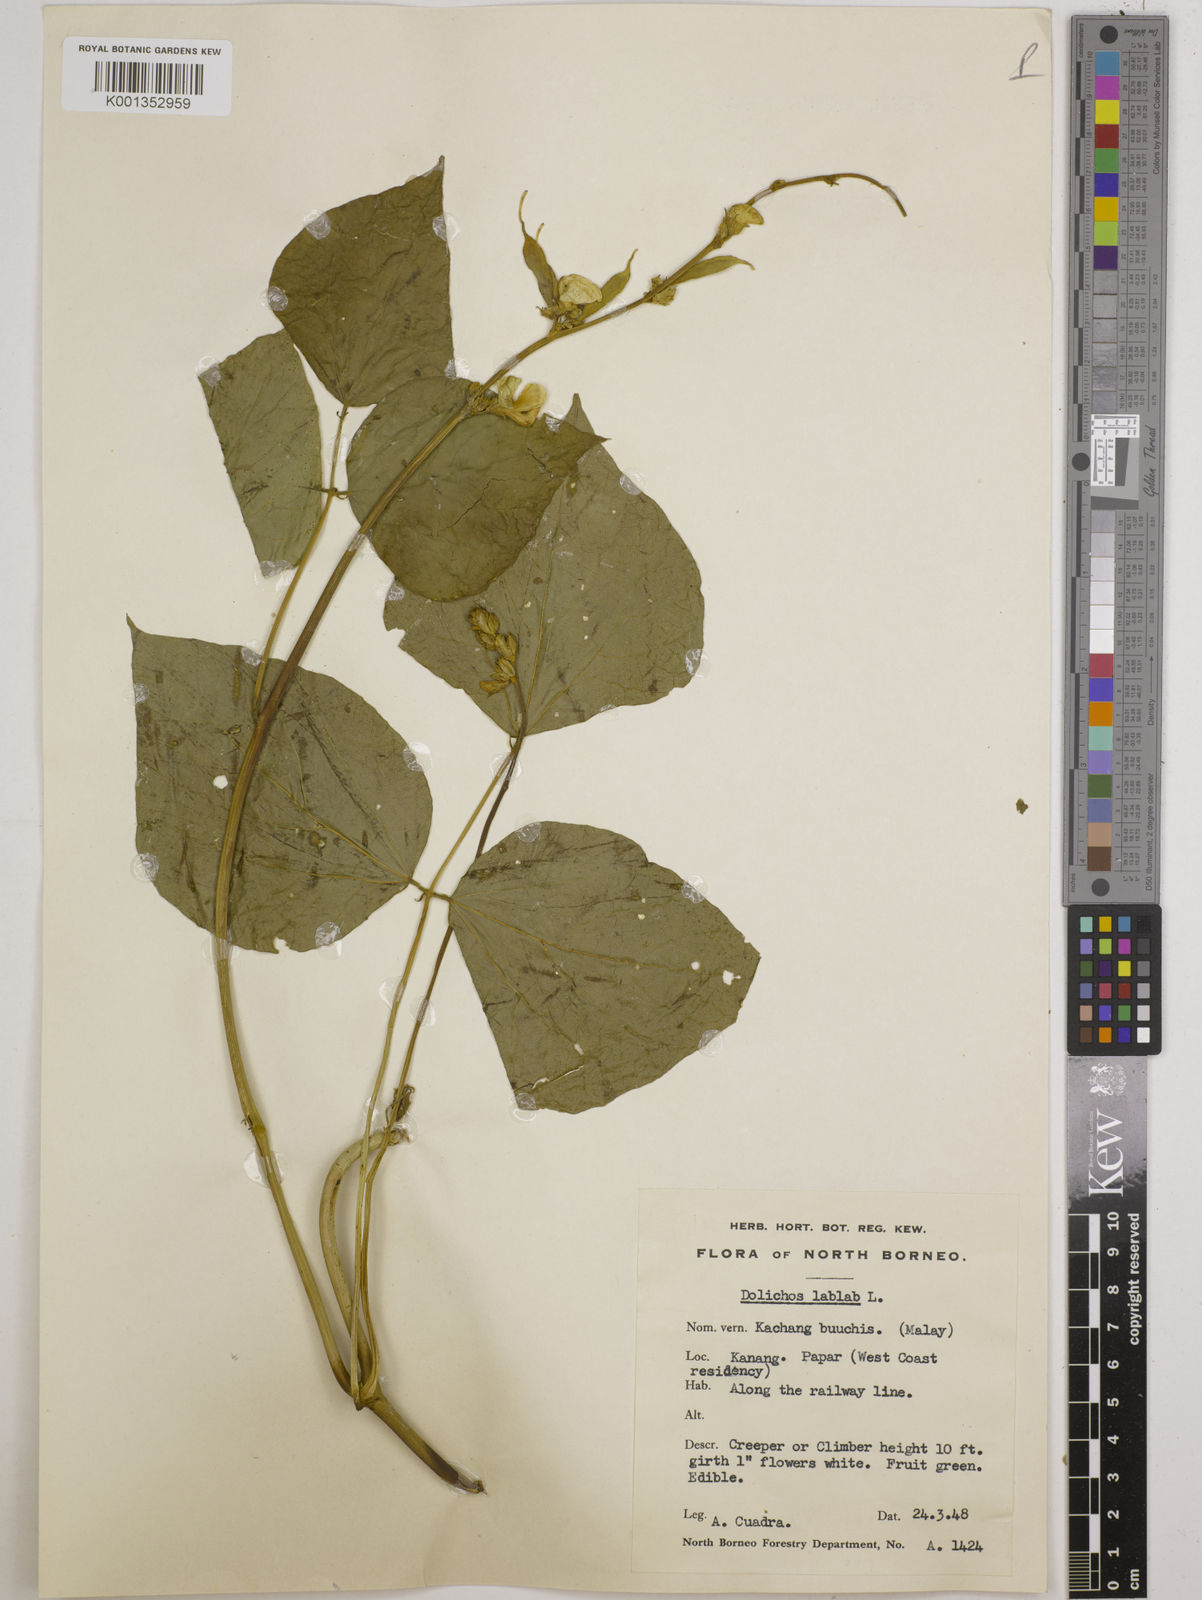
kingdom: Plantae
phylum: Tracheophyta
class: Magnoliopsida
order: Fabales
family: Fabaceae
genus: Lablab
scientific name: Lablab purpureus
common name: Lablab-bean
